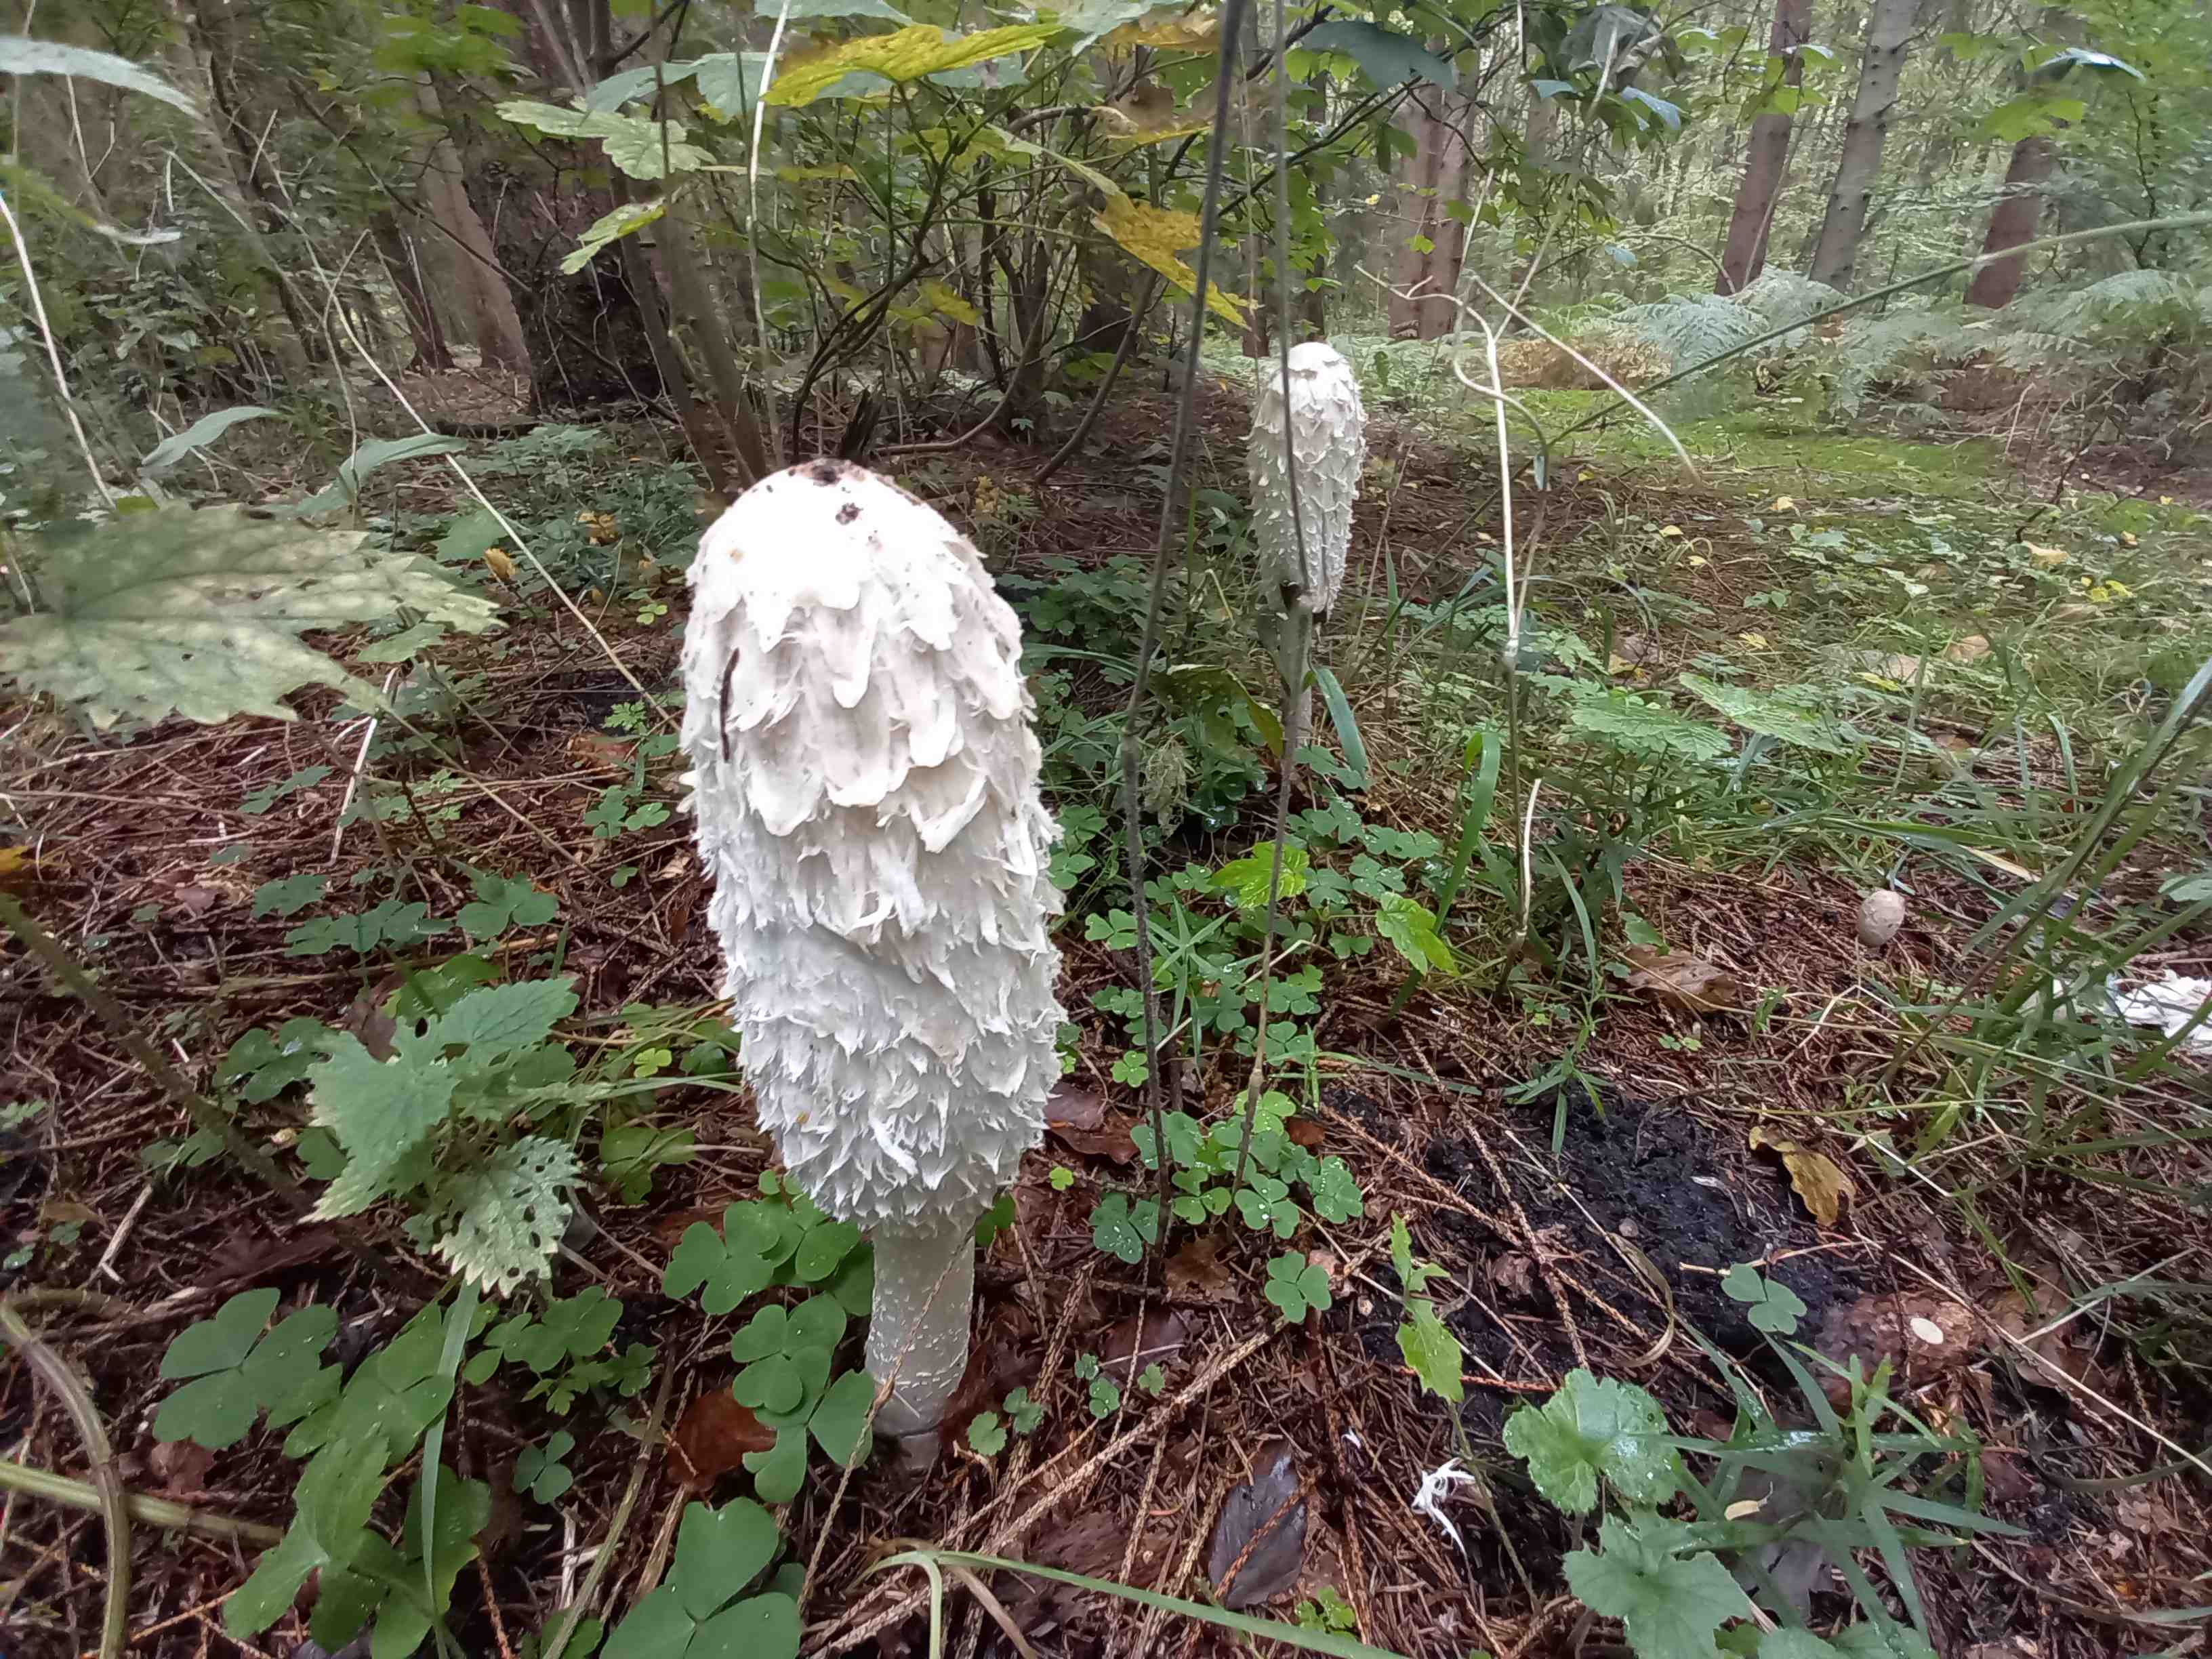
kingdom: Fungi
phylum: Basidiomycota
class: Agaricomycetes
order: Agaricales
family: Agaricaceae
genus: Coprinus
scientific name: Coprinus comatus
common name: stor parykhat
